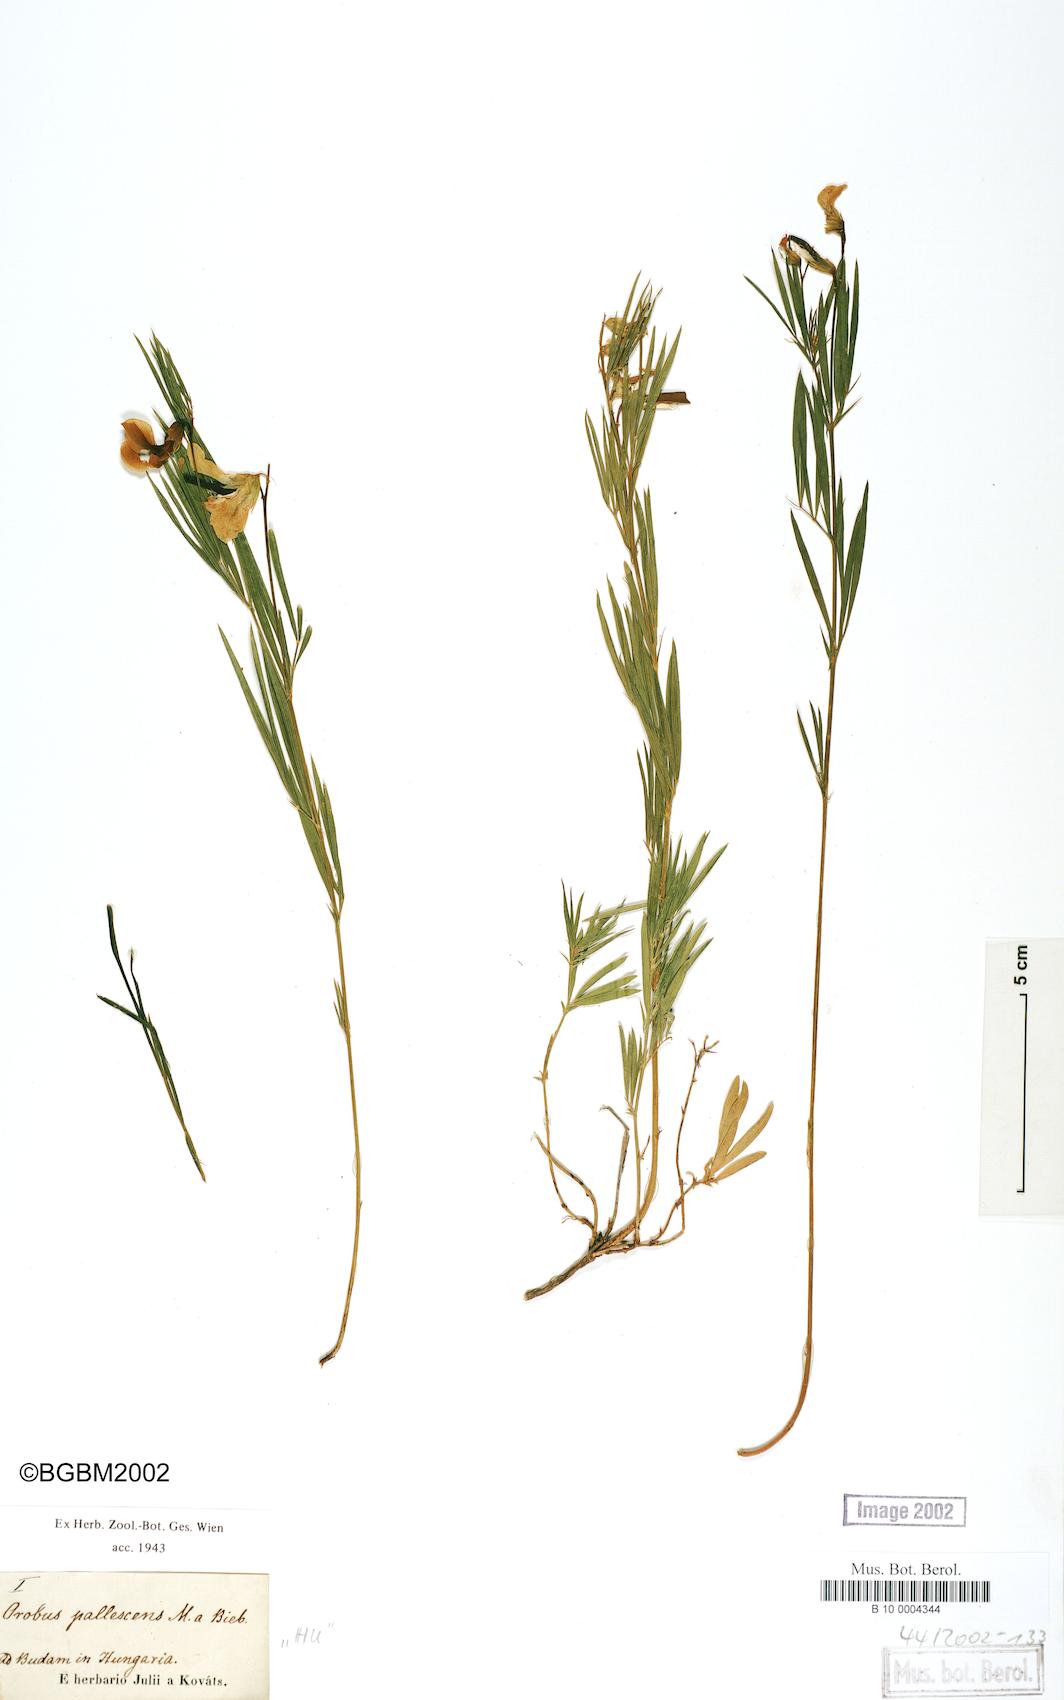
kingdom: Plantae
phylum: Tracheophyta
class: Magnoliopsida
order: Fabales
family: Fabaceae
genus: Lathyrus
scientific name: Lathyrus pallescens
